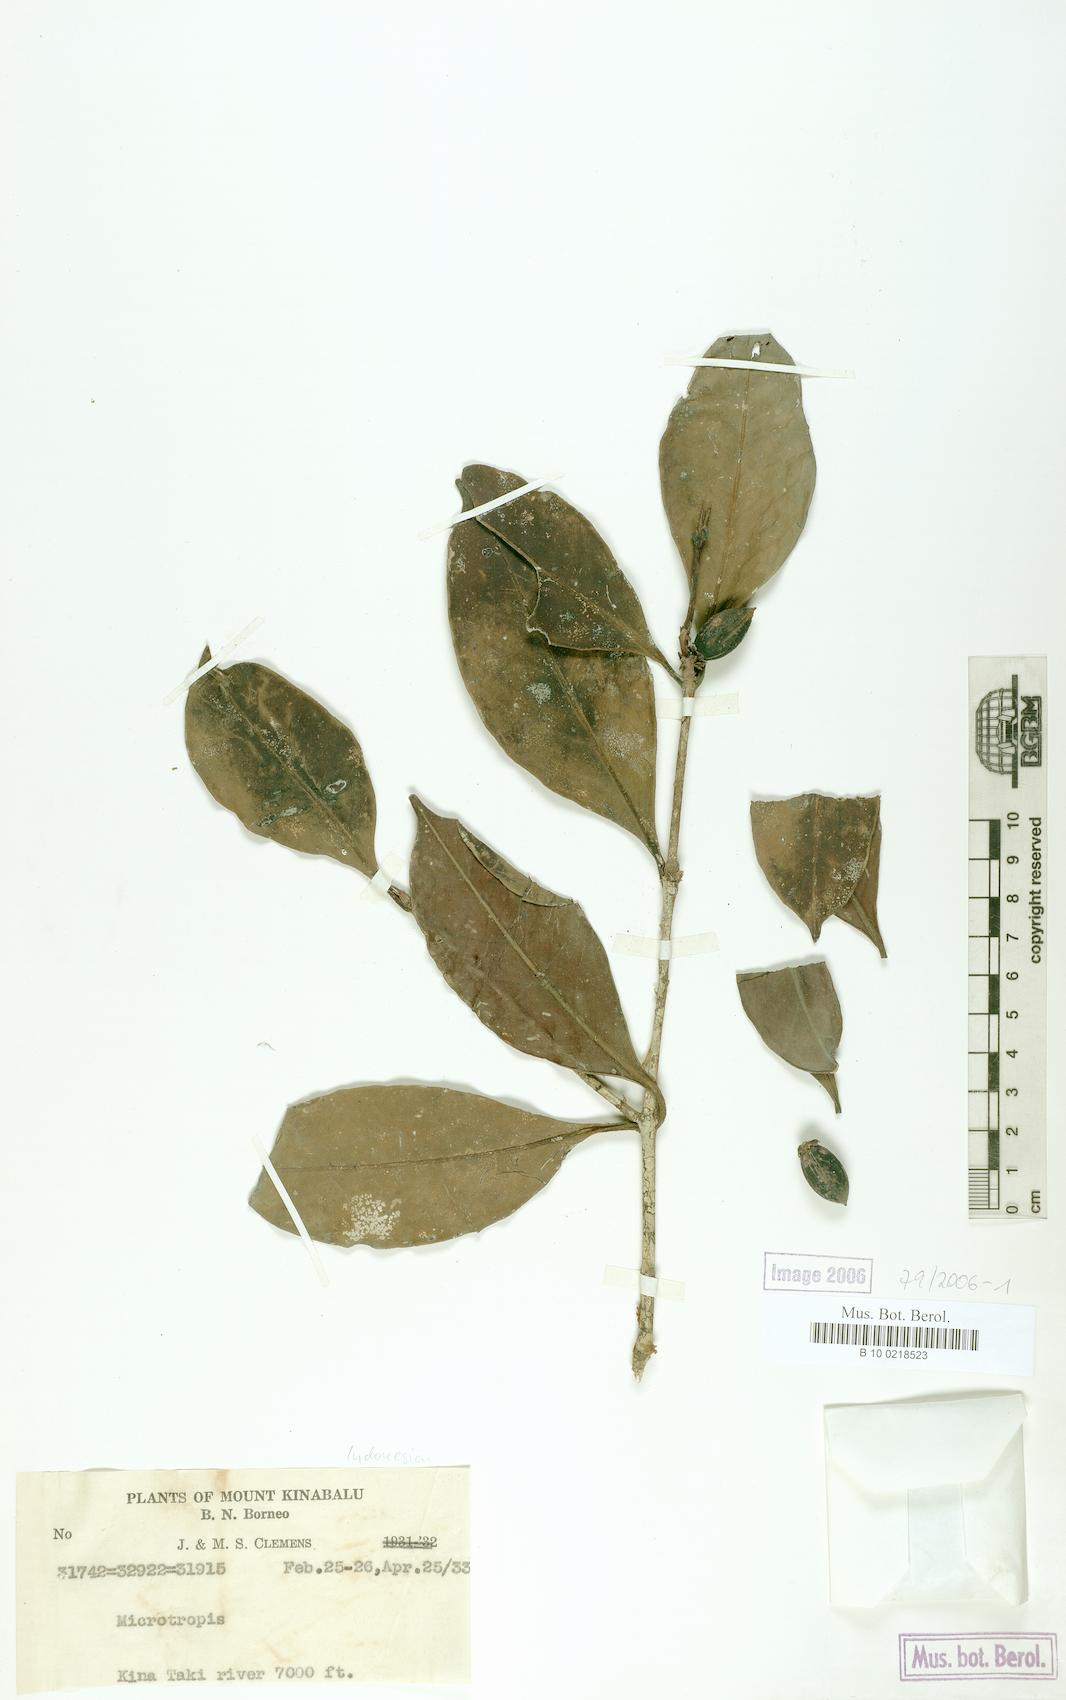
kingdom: Plantae
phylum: Tracheophyta
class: Magnoliopsida
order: Celastrales
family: Celastraceae
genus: Microtropis
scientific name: Microtropis
